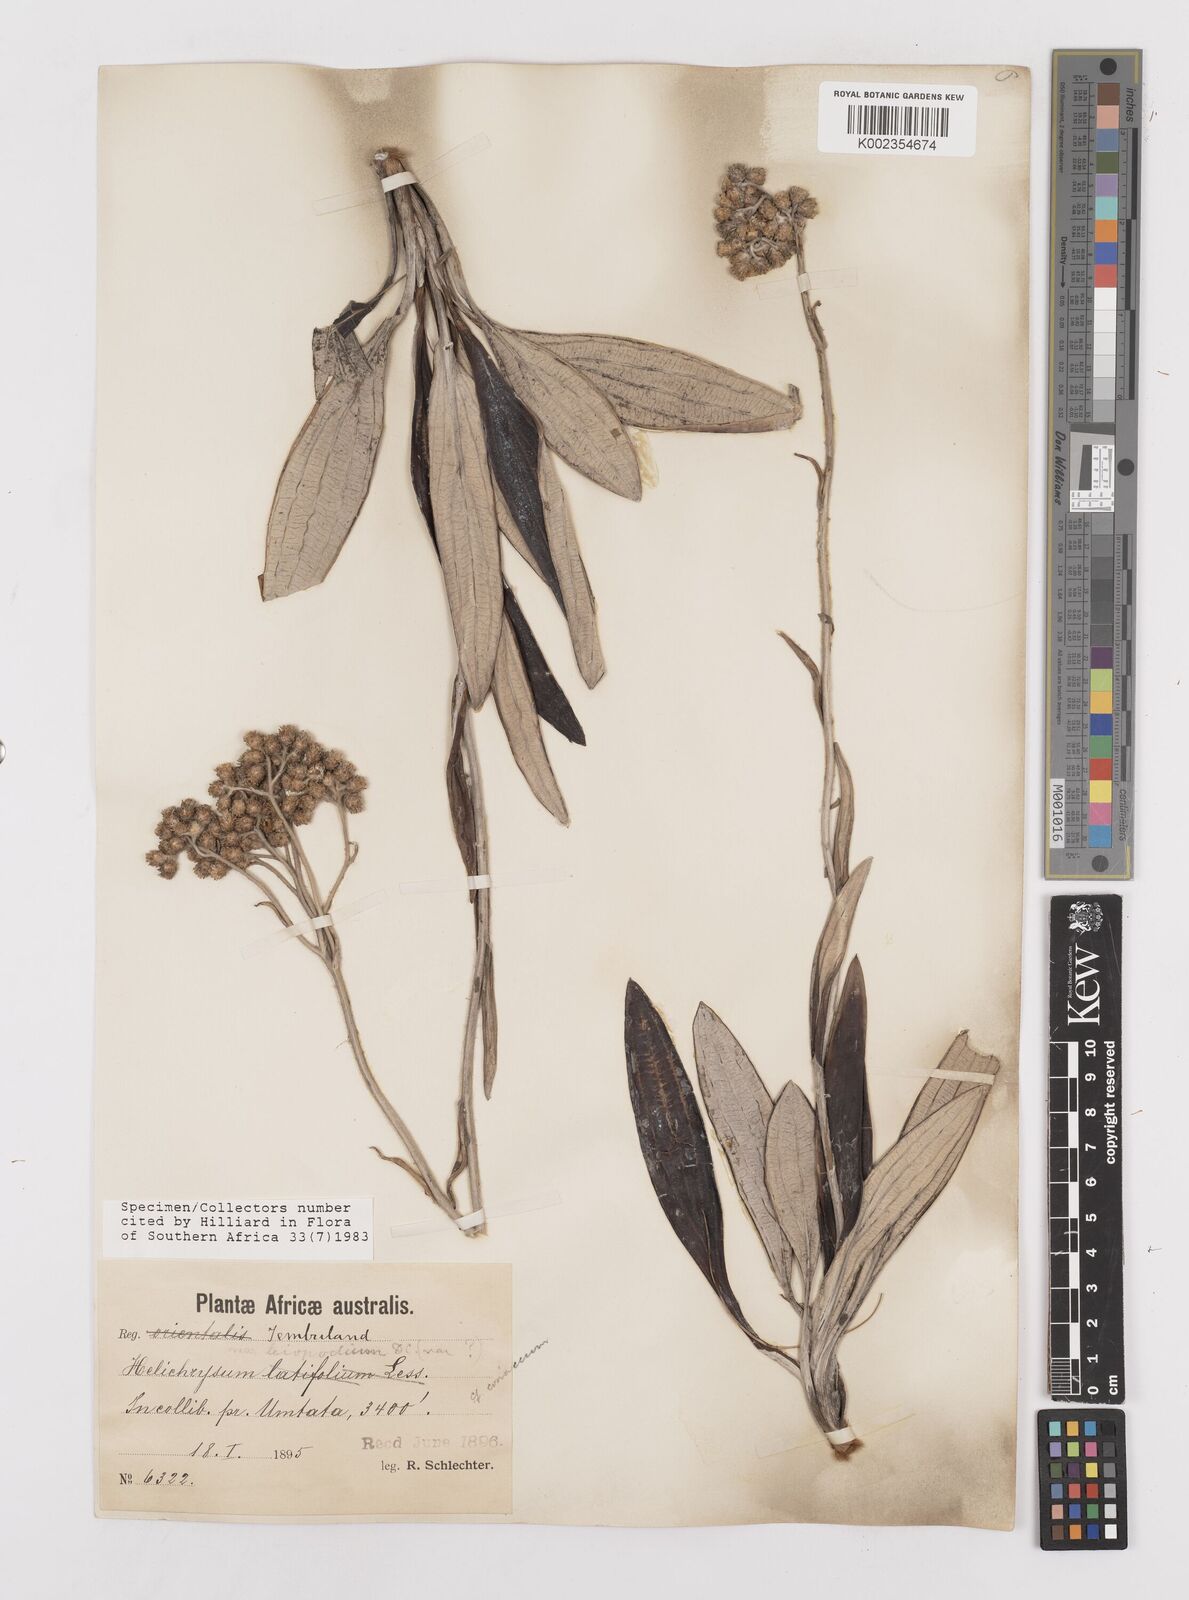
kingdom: Plantae
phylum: Tracheophyta
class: Magnoliopsida
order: Asterales
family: Asteraceae
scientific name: Asteraceae
